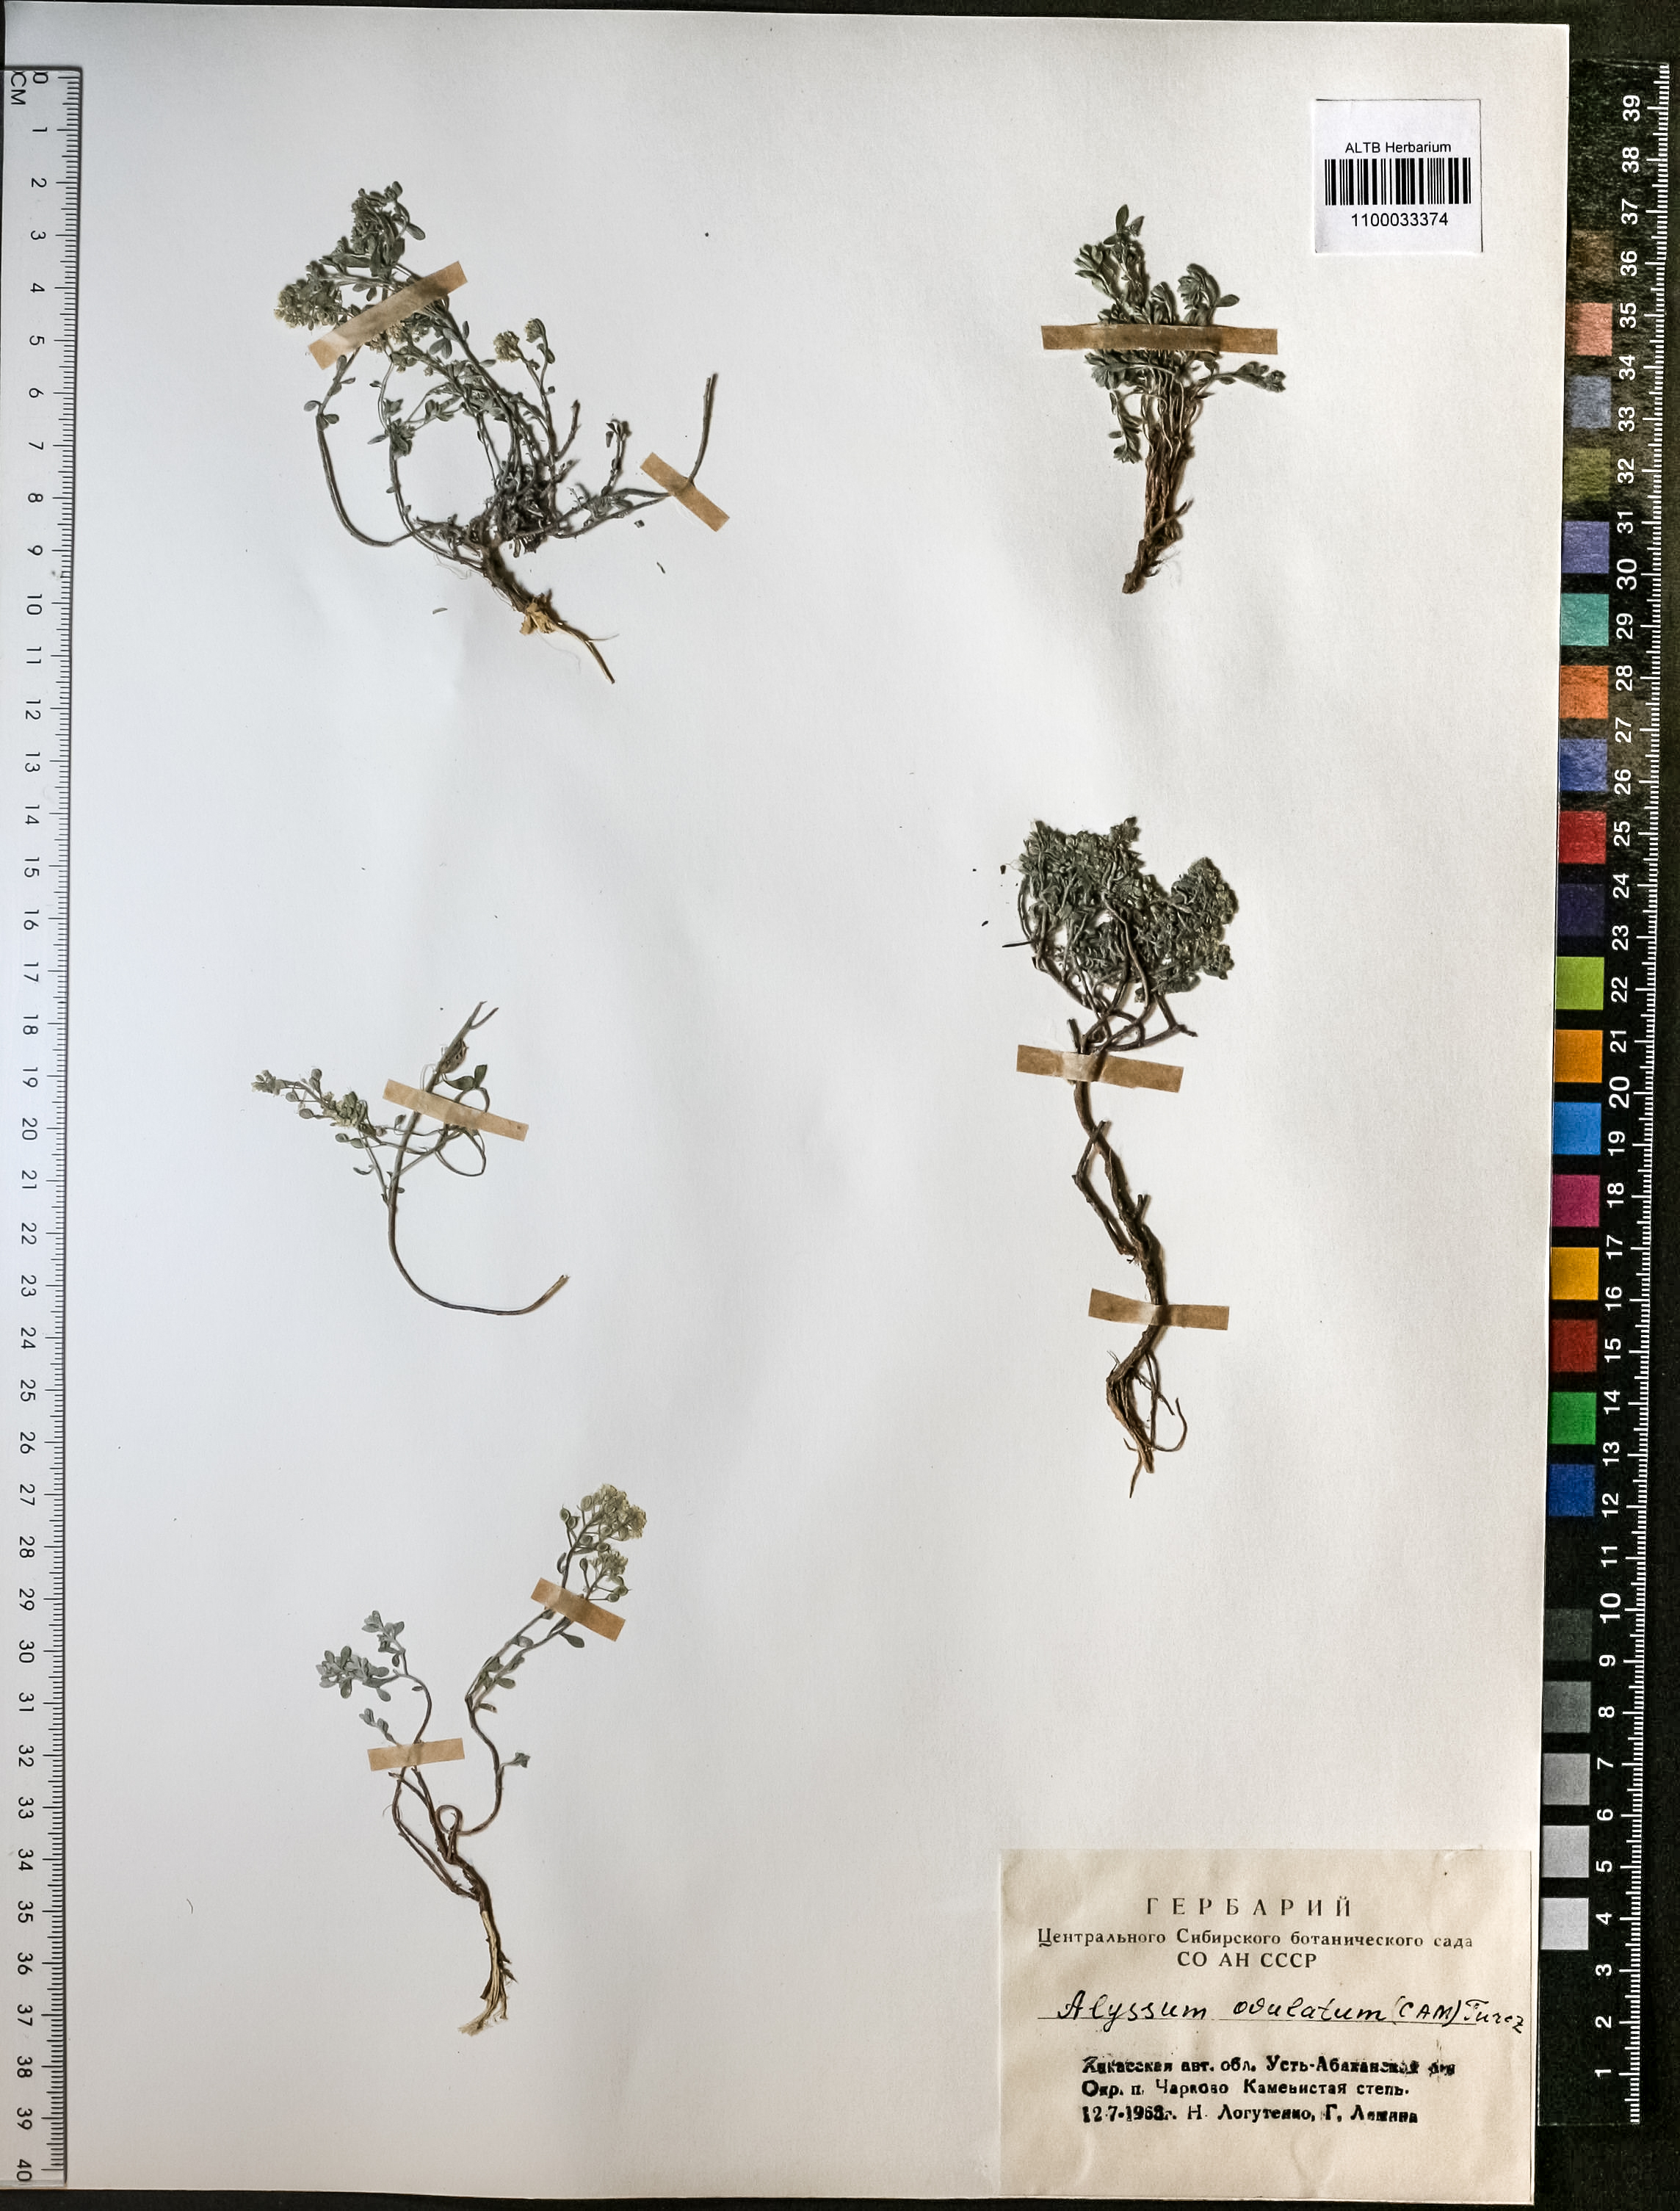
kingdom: Plantae
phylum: Tracheophyta
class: Magnoliopsida
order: Brassicales
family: Brassicaceae
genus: Odontarrhena
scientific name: Odontarrhena obovata
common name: American alyssum
